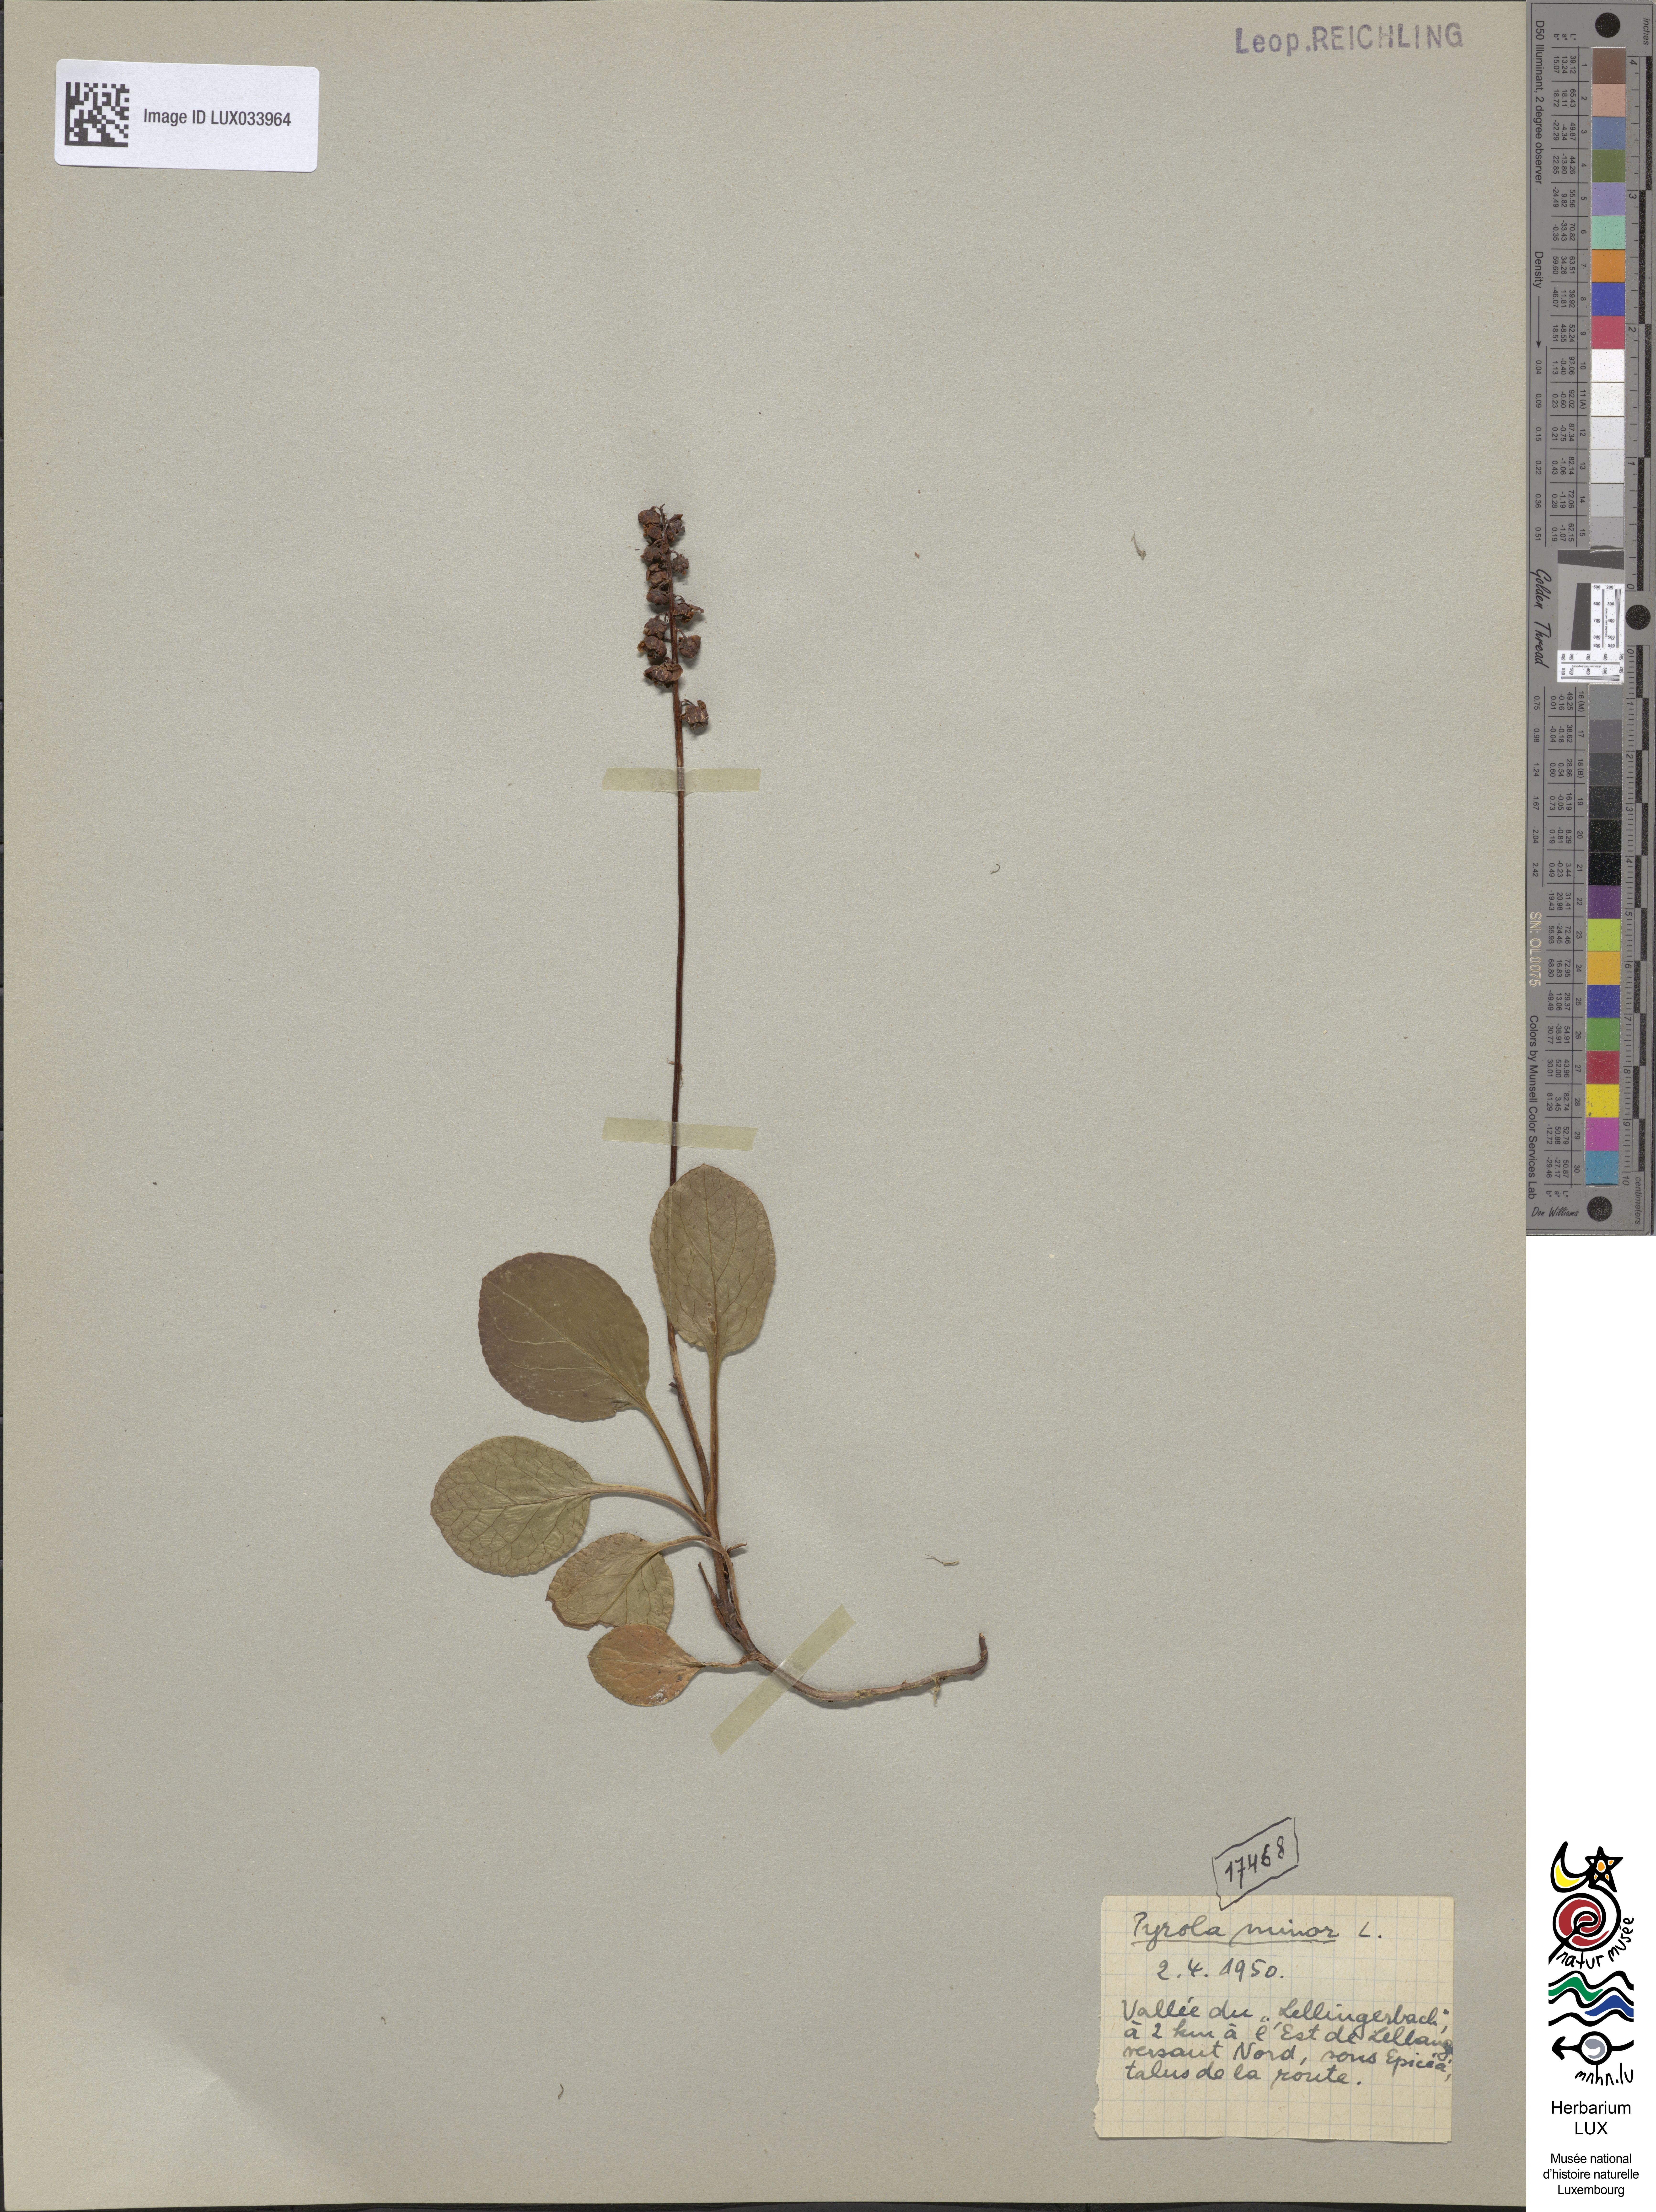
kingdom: Plantae
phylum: Tracheophyta
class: Magnoliopsida
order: Ericales
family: Ericaceae
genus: Pyrola
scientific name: Pyrola minor
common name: Common wintergreen
